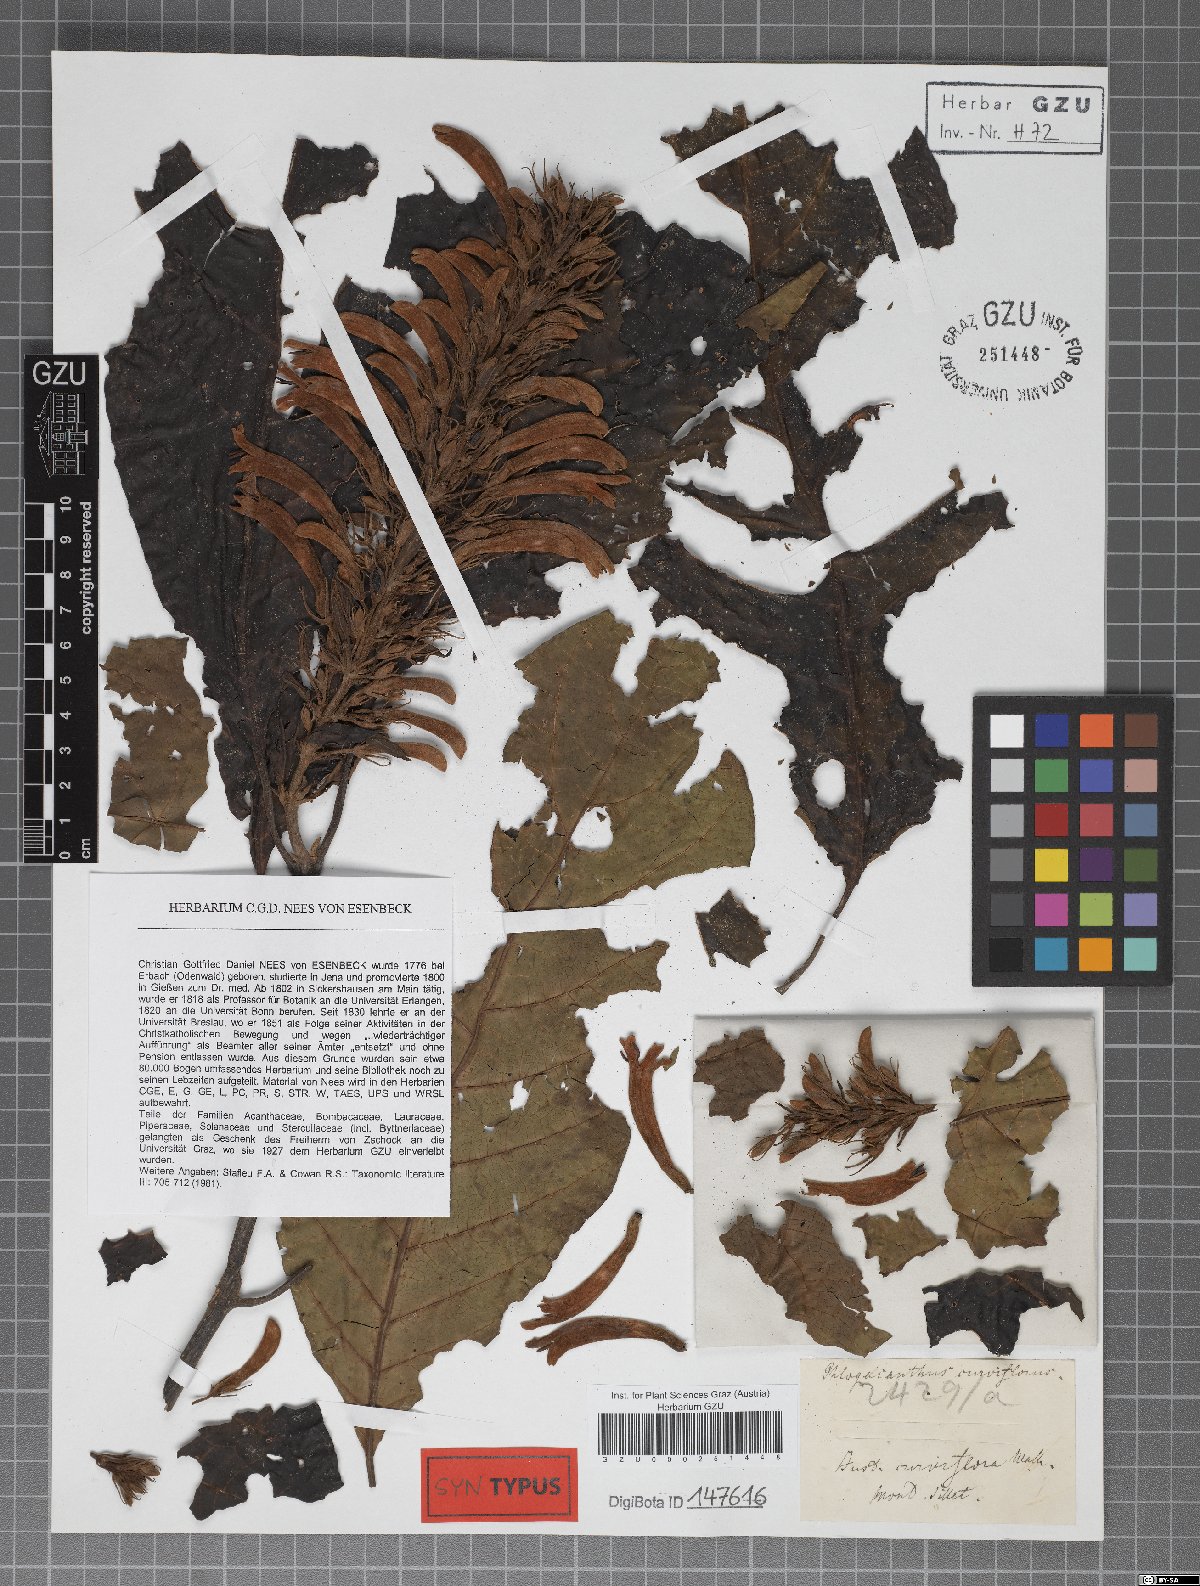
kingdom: Plantae
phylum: Tracheophyta
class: Magnoliopsida
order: Lamiales
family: Acanthaceae
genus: Justicia
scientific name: Justicia curviflora
